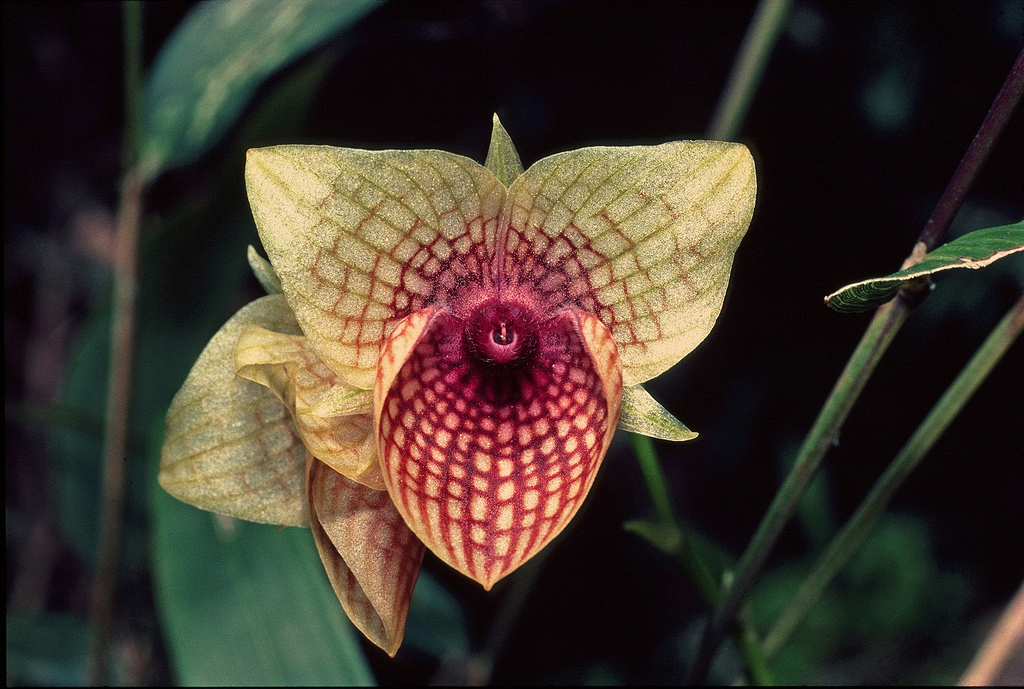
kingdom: Plantae
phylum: Tracheophyta
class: Liliopsida
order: Asparagales
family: Orchidaceae
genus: Telipogon
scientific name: Telipogon ionopogon
